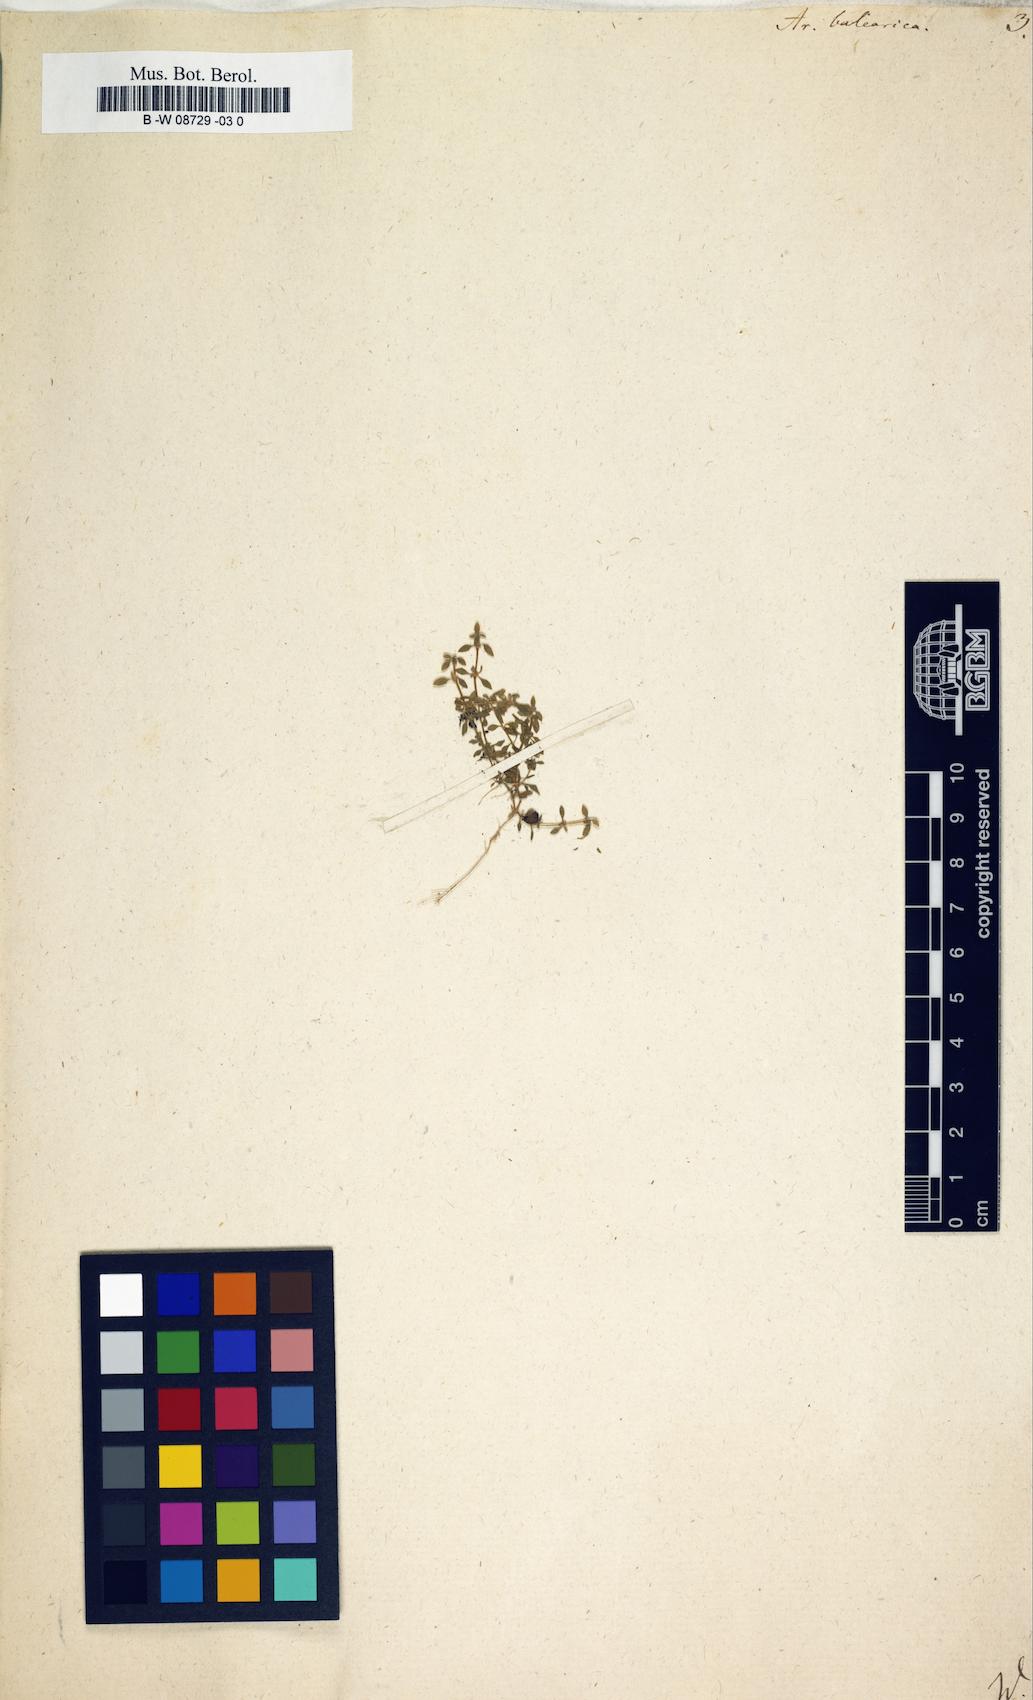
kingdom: Plantae
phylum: Tracheophyta
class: Magnoliopsida
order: Caryophyllales
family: Caryophyllaceae
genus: Arenaria
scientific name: Arenaria balearica
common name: Mossy sandwort
